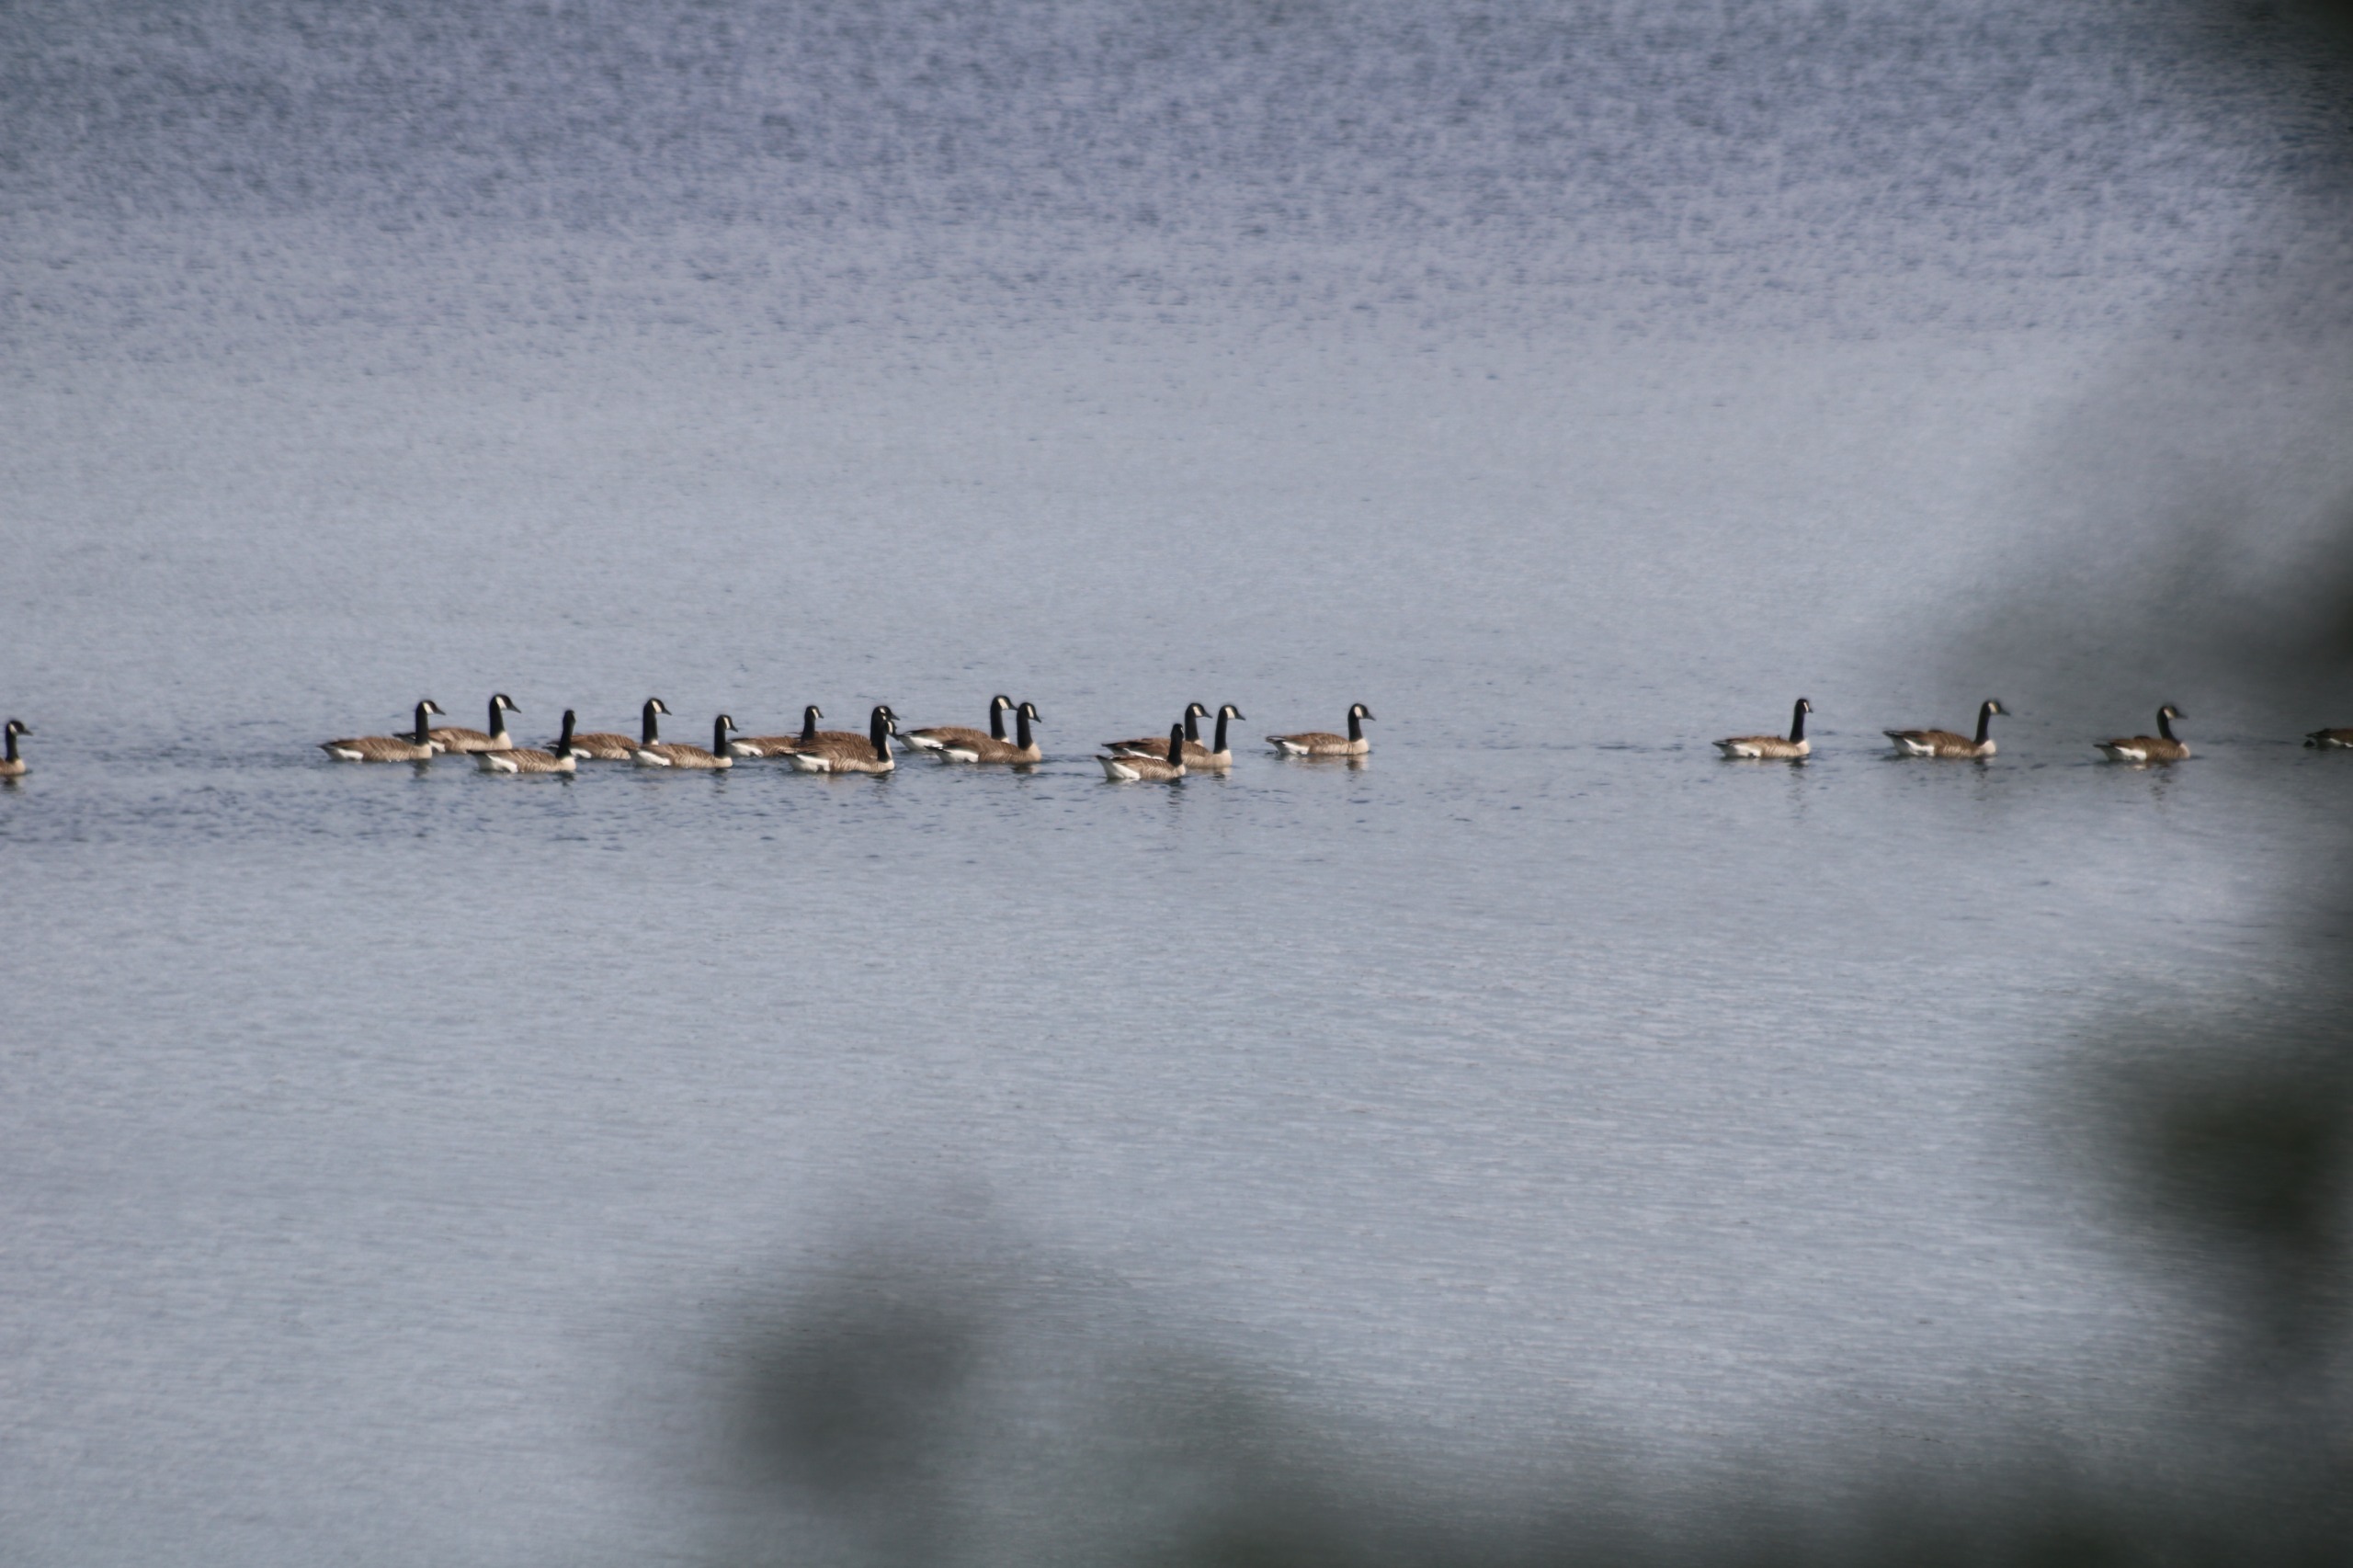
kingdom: Animalia
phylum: Chordata
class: Aves
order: Anseriformes
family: Anatidae
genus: Branta
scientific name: Branta canadensis
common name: Canadagås
